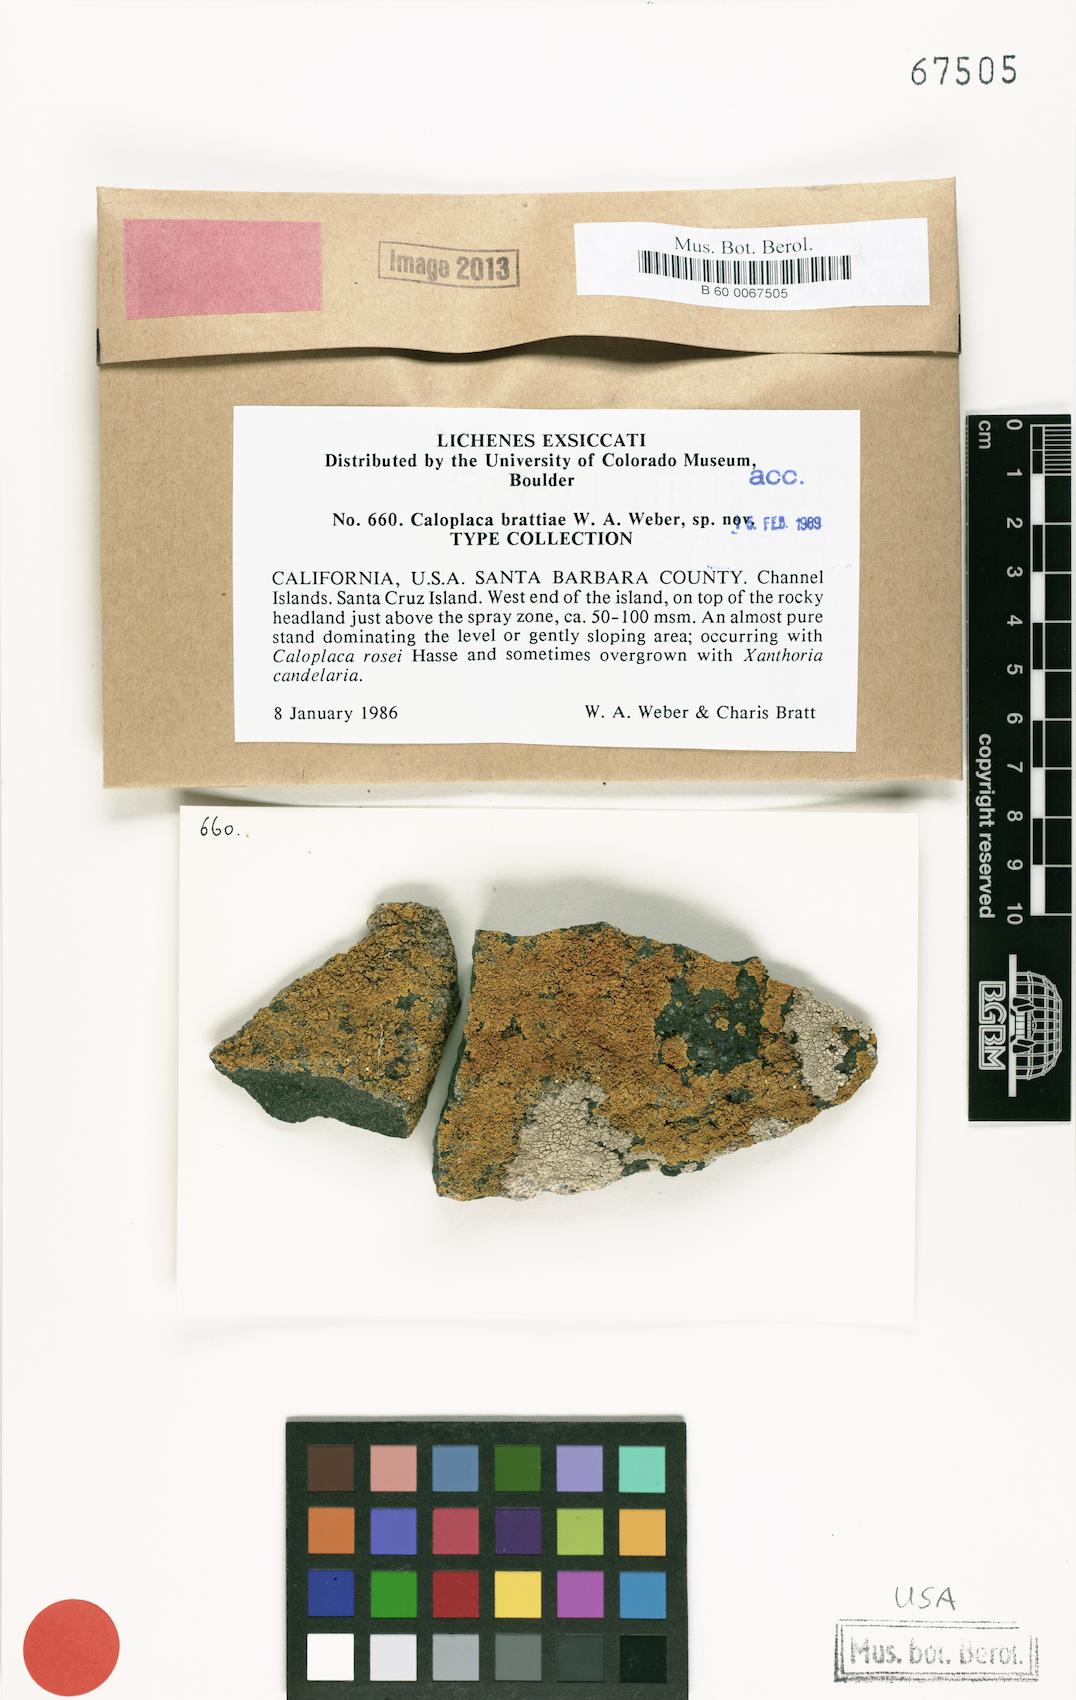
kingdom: Fungi
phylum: Ascomycota
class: Lecanoromycetes
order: Teloschistales
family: Teloschistaceae
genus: Polycauliona
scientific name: Polycauliona brattiae
